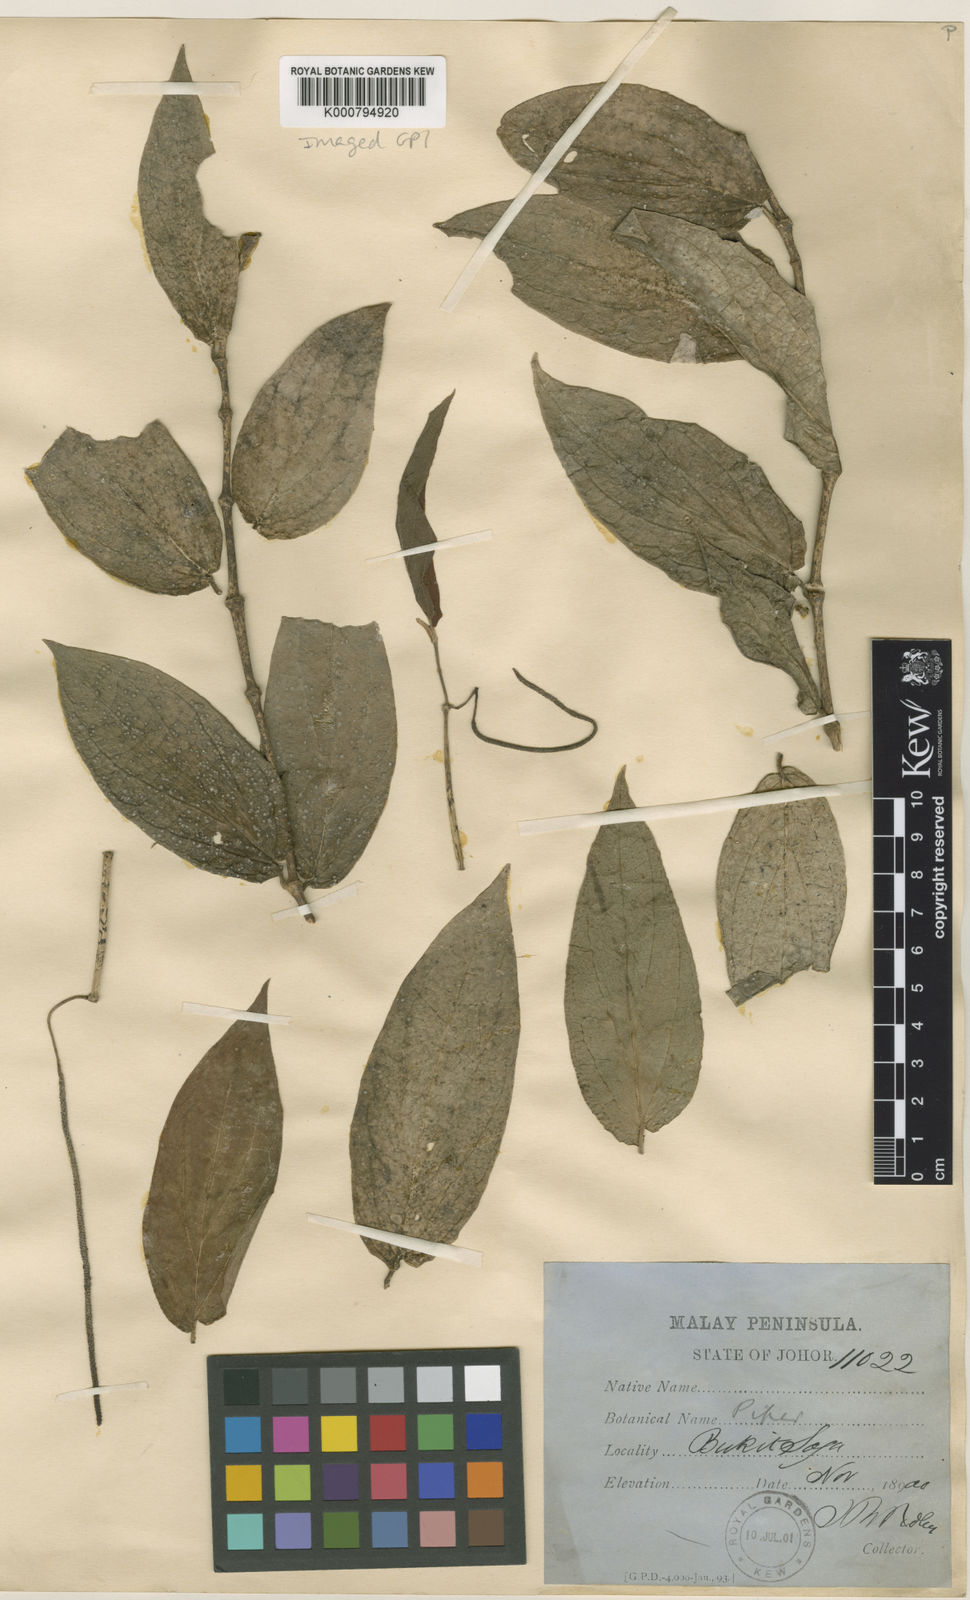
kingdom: Plantae
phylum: Tracheophyta
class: Magnoliopsida
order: Piperales
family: Piperaceae
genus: Piper
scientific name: Piper frustratum
